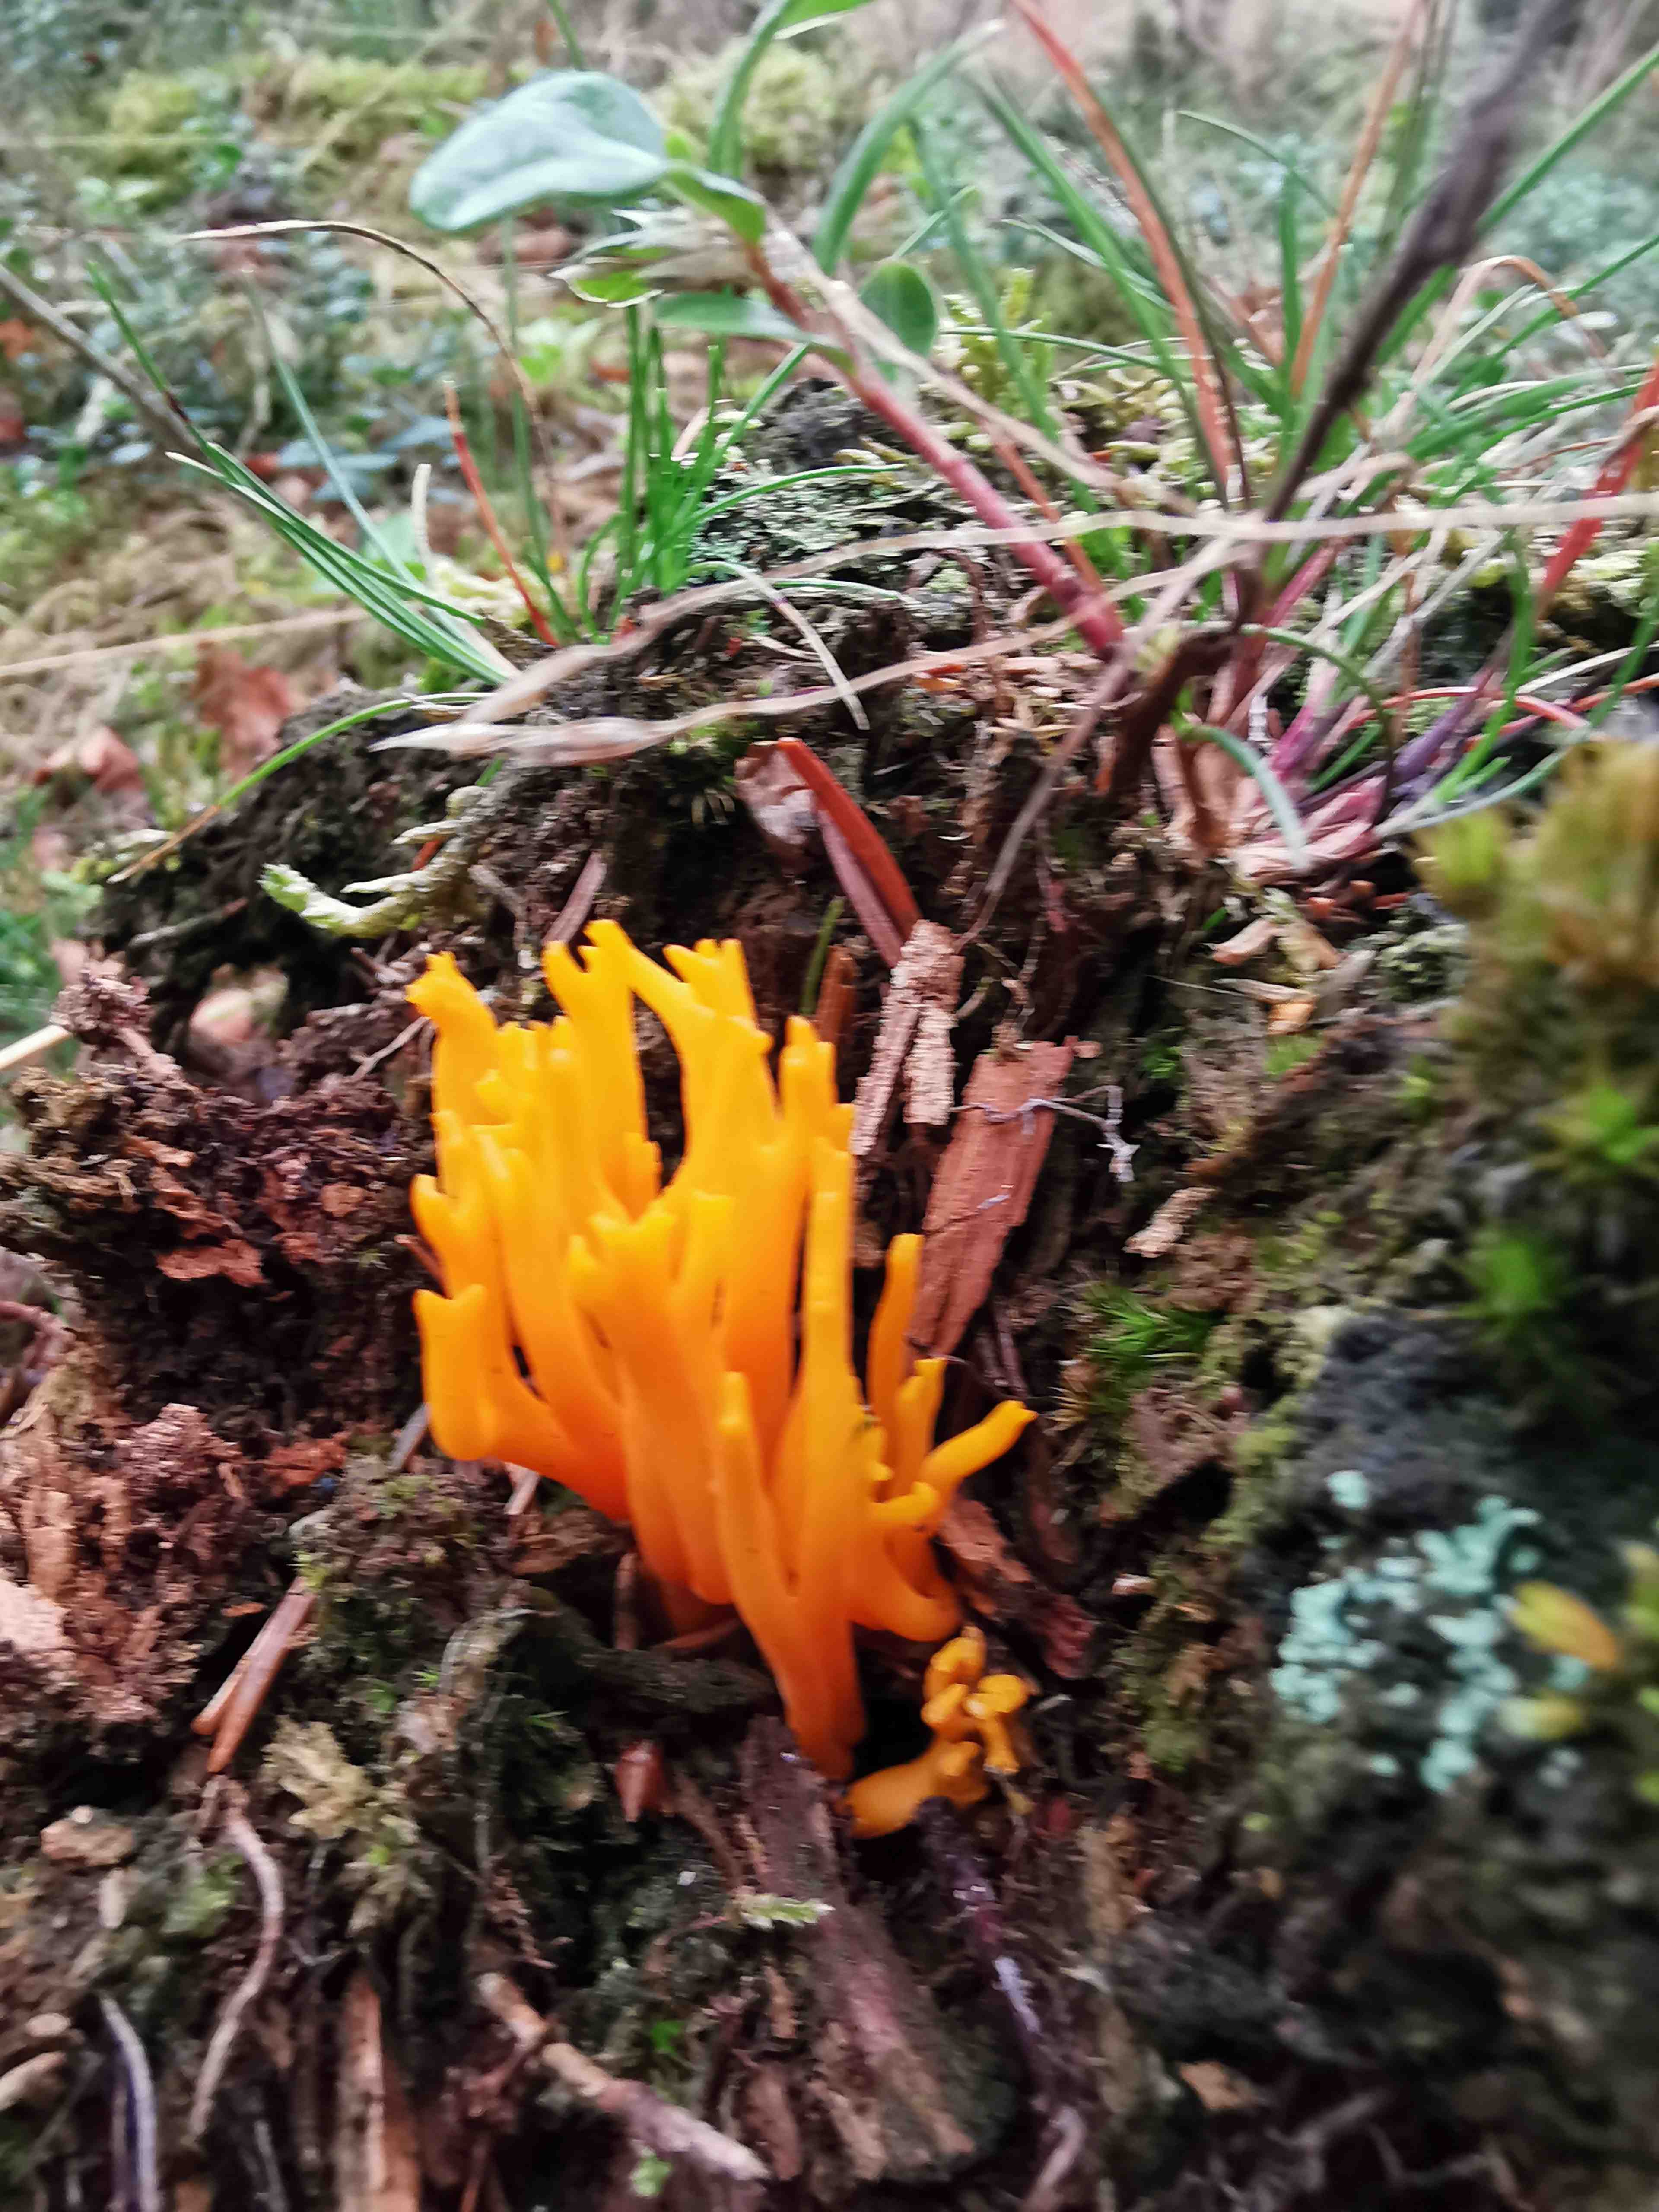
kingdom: Fungi
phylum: Basidiomycota
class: Dacrymycetes
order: Dacrymycetales
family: Dacrymycetaceae
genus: Calocera
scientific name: Calocera viscosa
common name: almindelig guldgaffel
